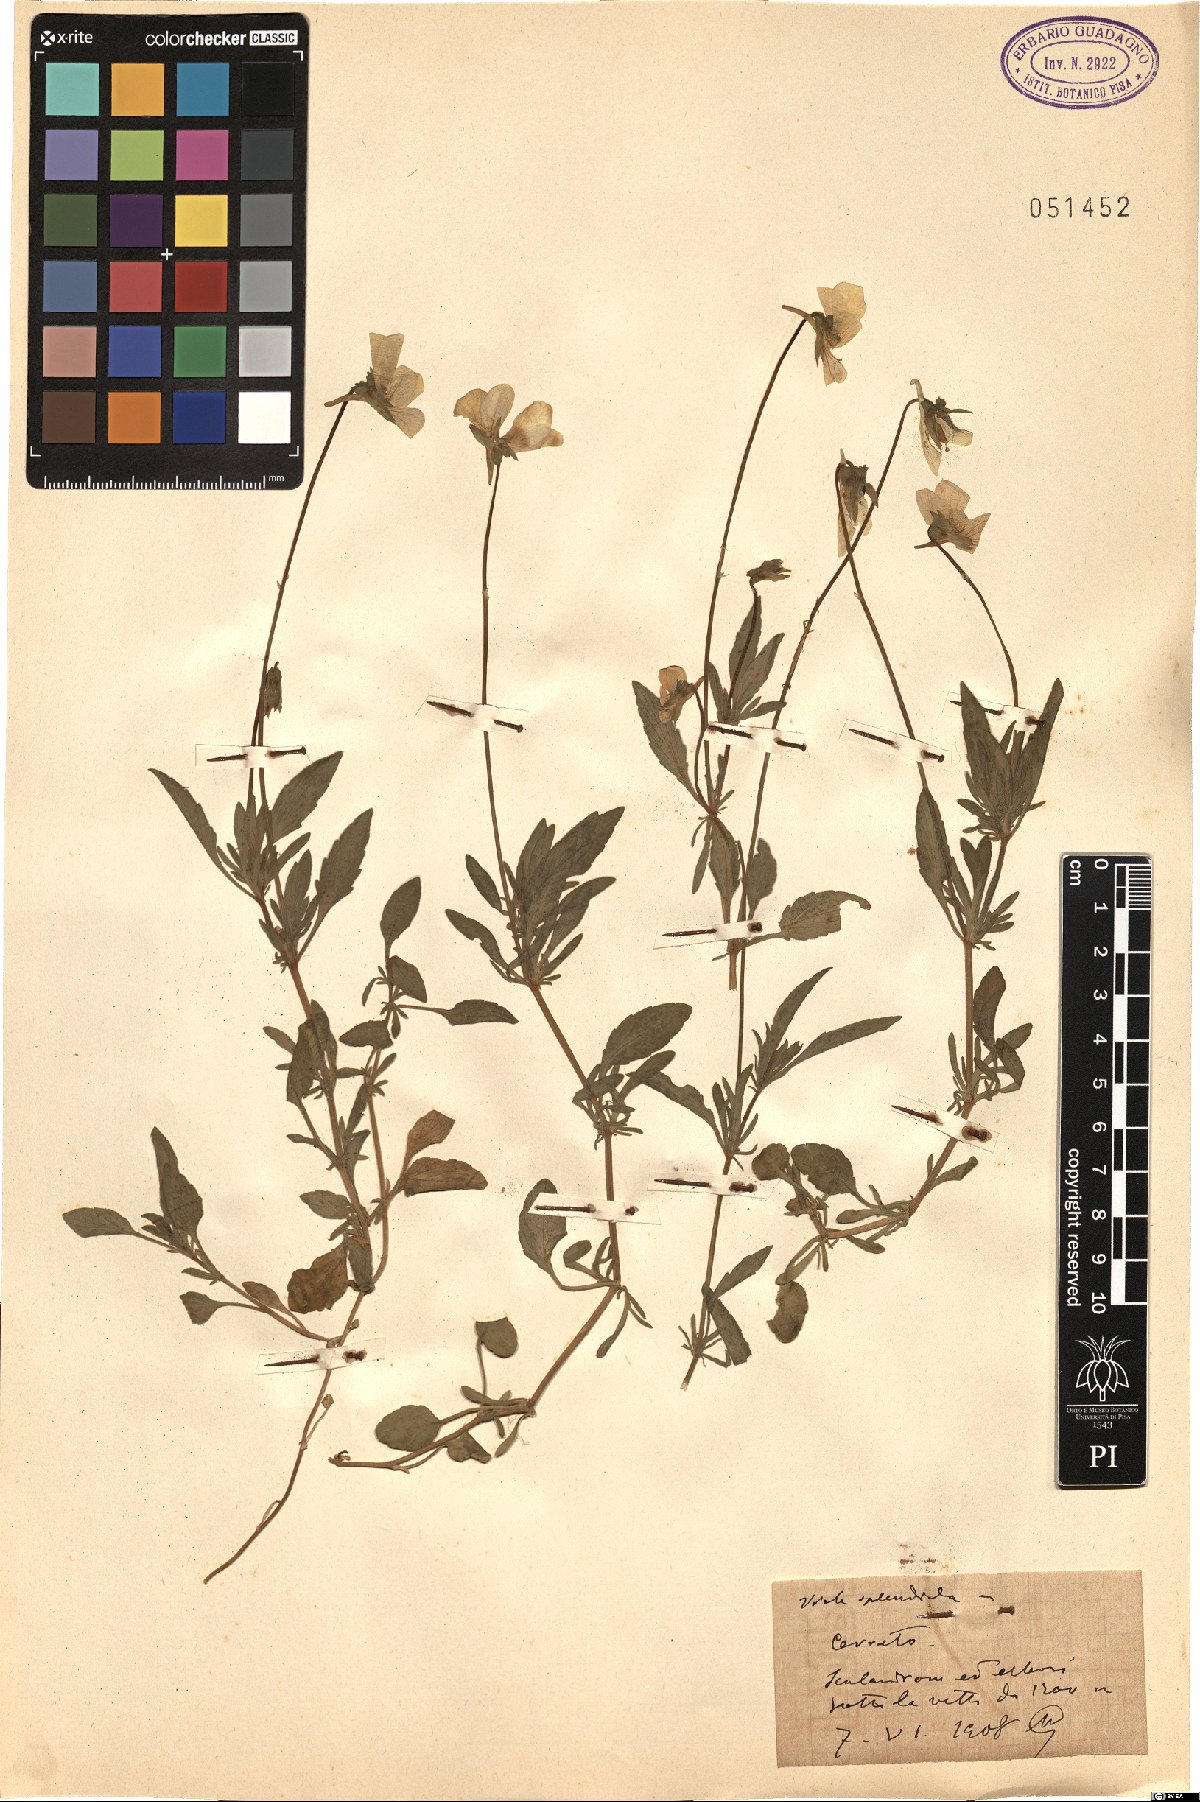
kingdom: Plantae
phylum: Tracheophyta
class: Magnoliopsida
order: Malpighiales
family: Violaceae
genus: Viola
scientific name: Viola aethnensis
